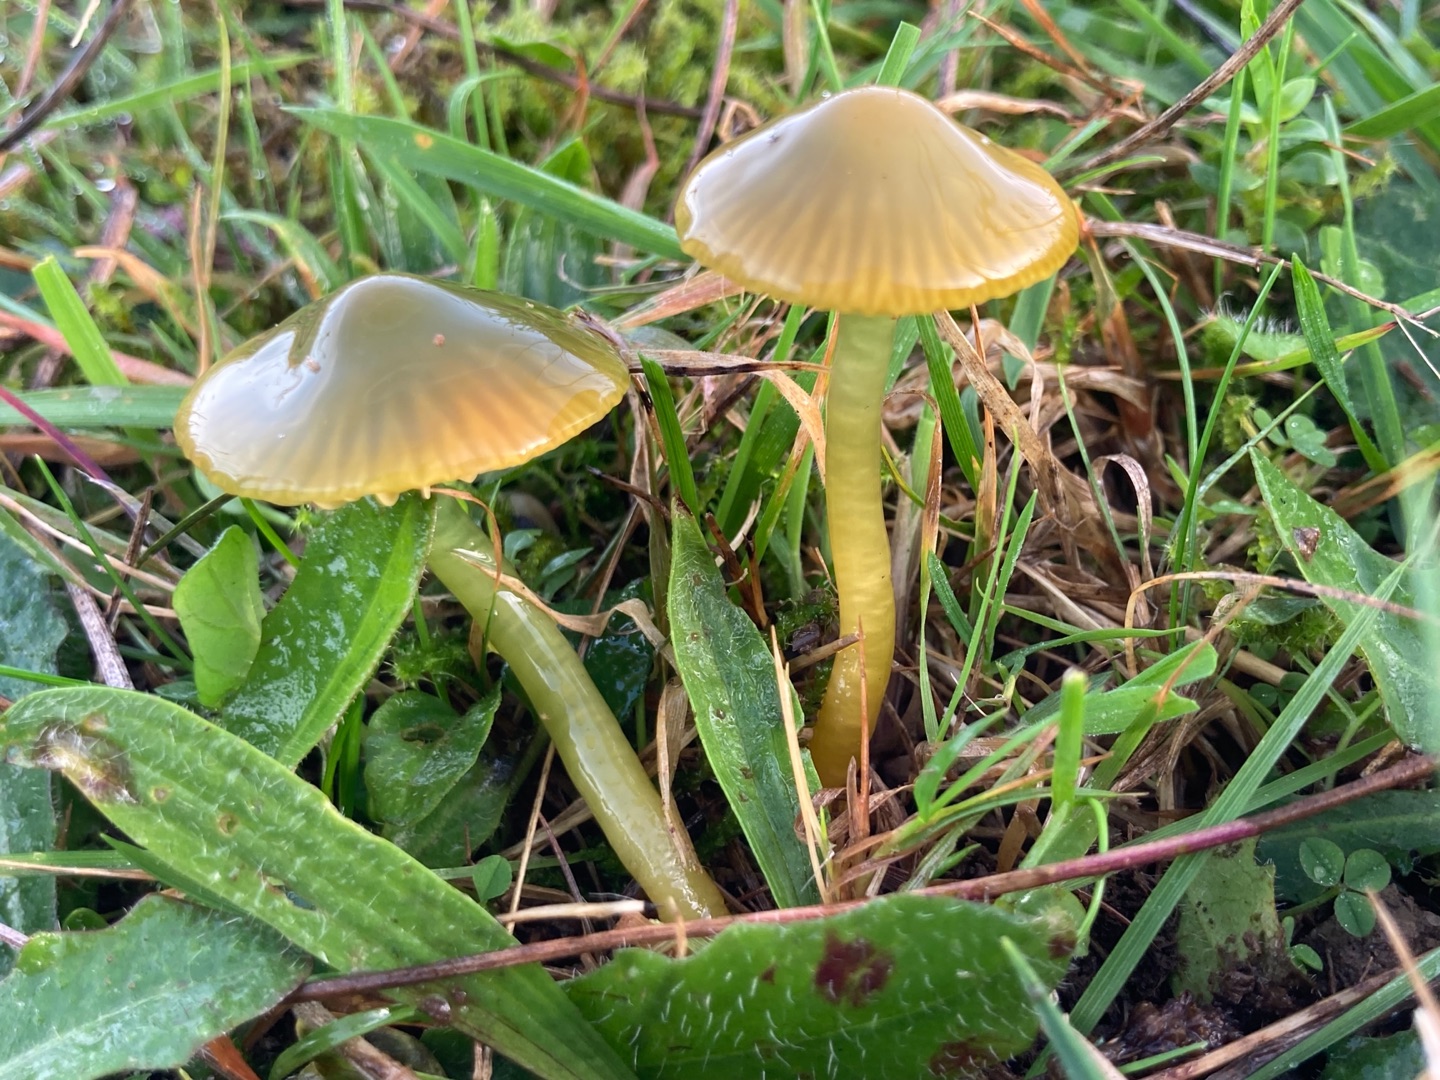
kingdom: Fungi
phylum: Basidiomycota
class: Agaricomycetes
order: Agaricales
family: Hygrophoraceae
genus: Gliophorus
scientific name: Gliophorus psittacinus
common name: Papegøje-vokshat
